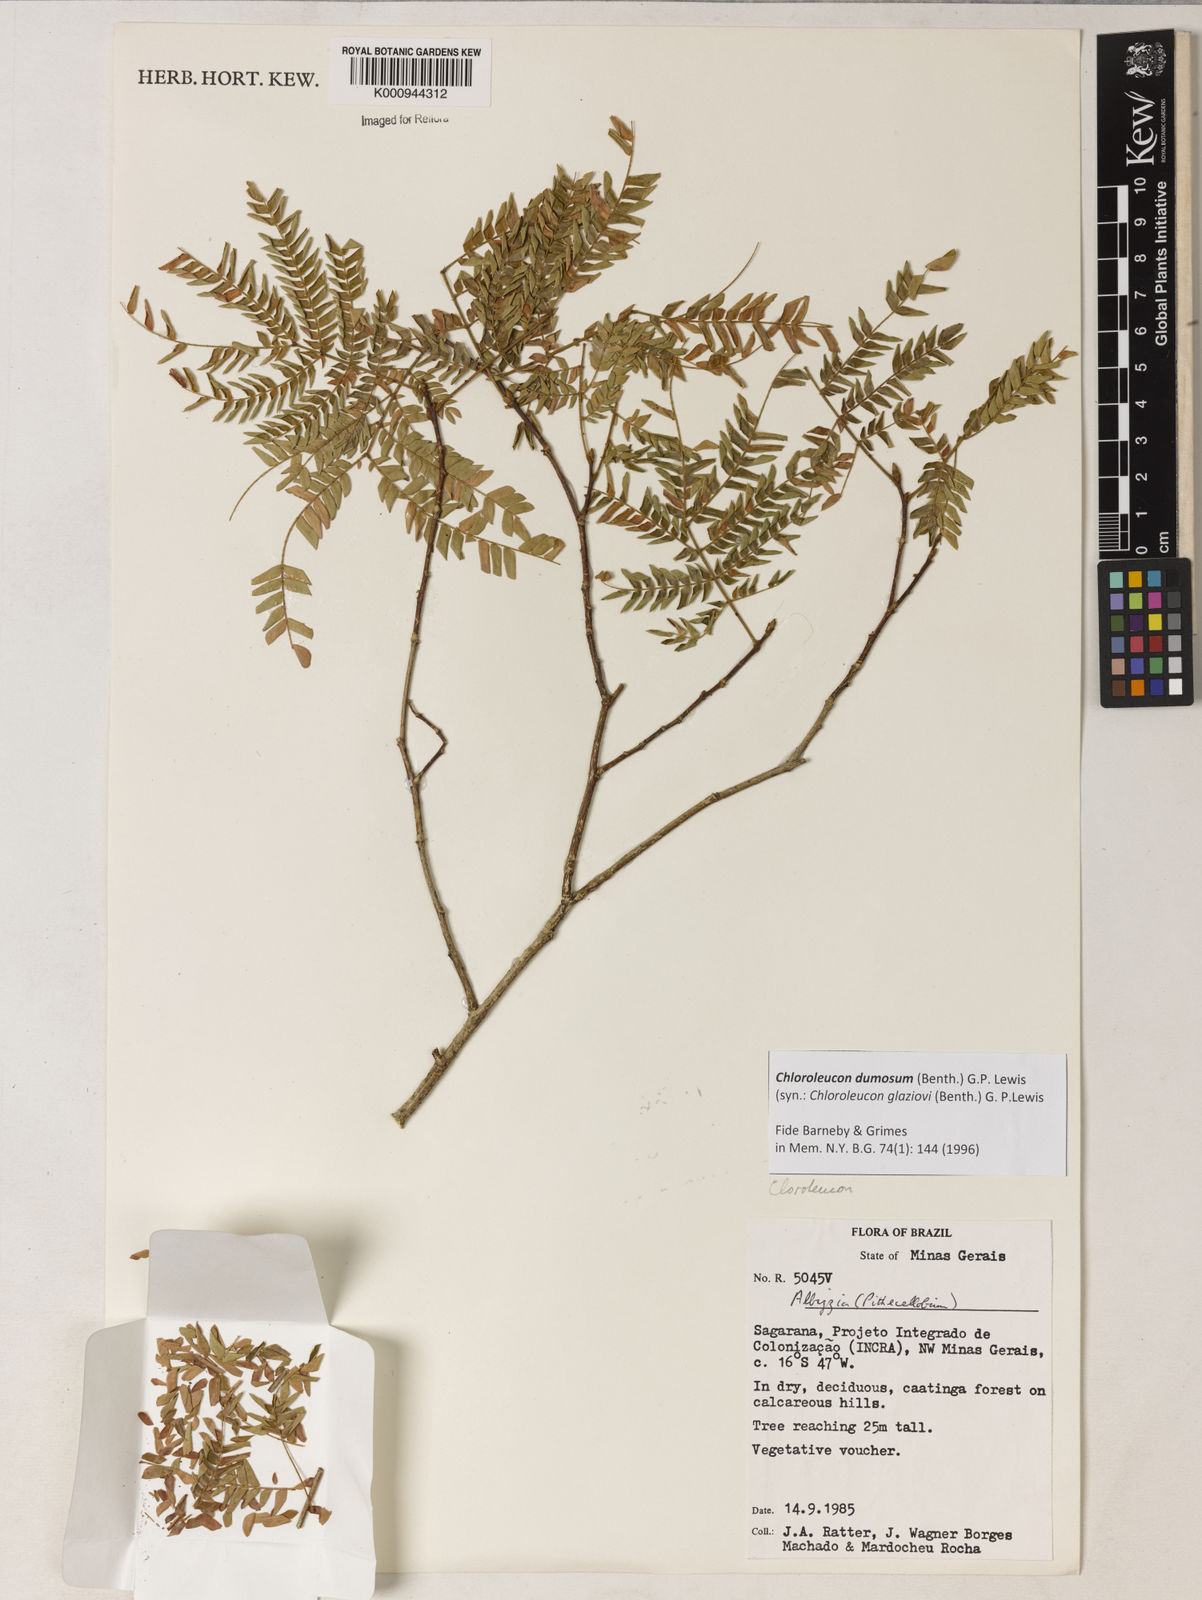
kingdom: Plantae
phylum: Tracheophyta
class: Magnoliopsida
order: Fabales
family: Fabaceae
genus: Inga
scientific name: Inga stenoptera
